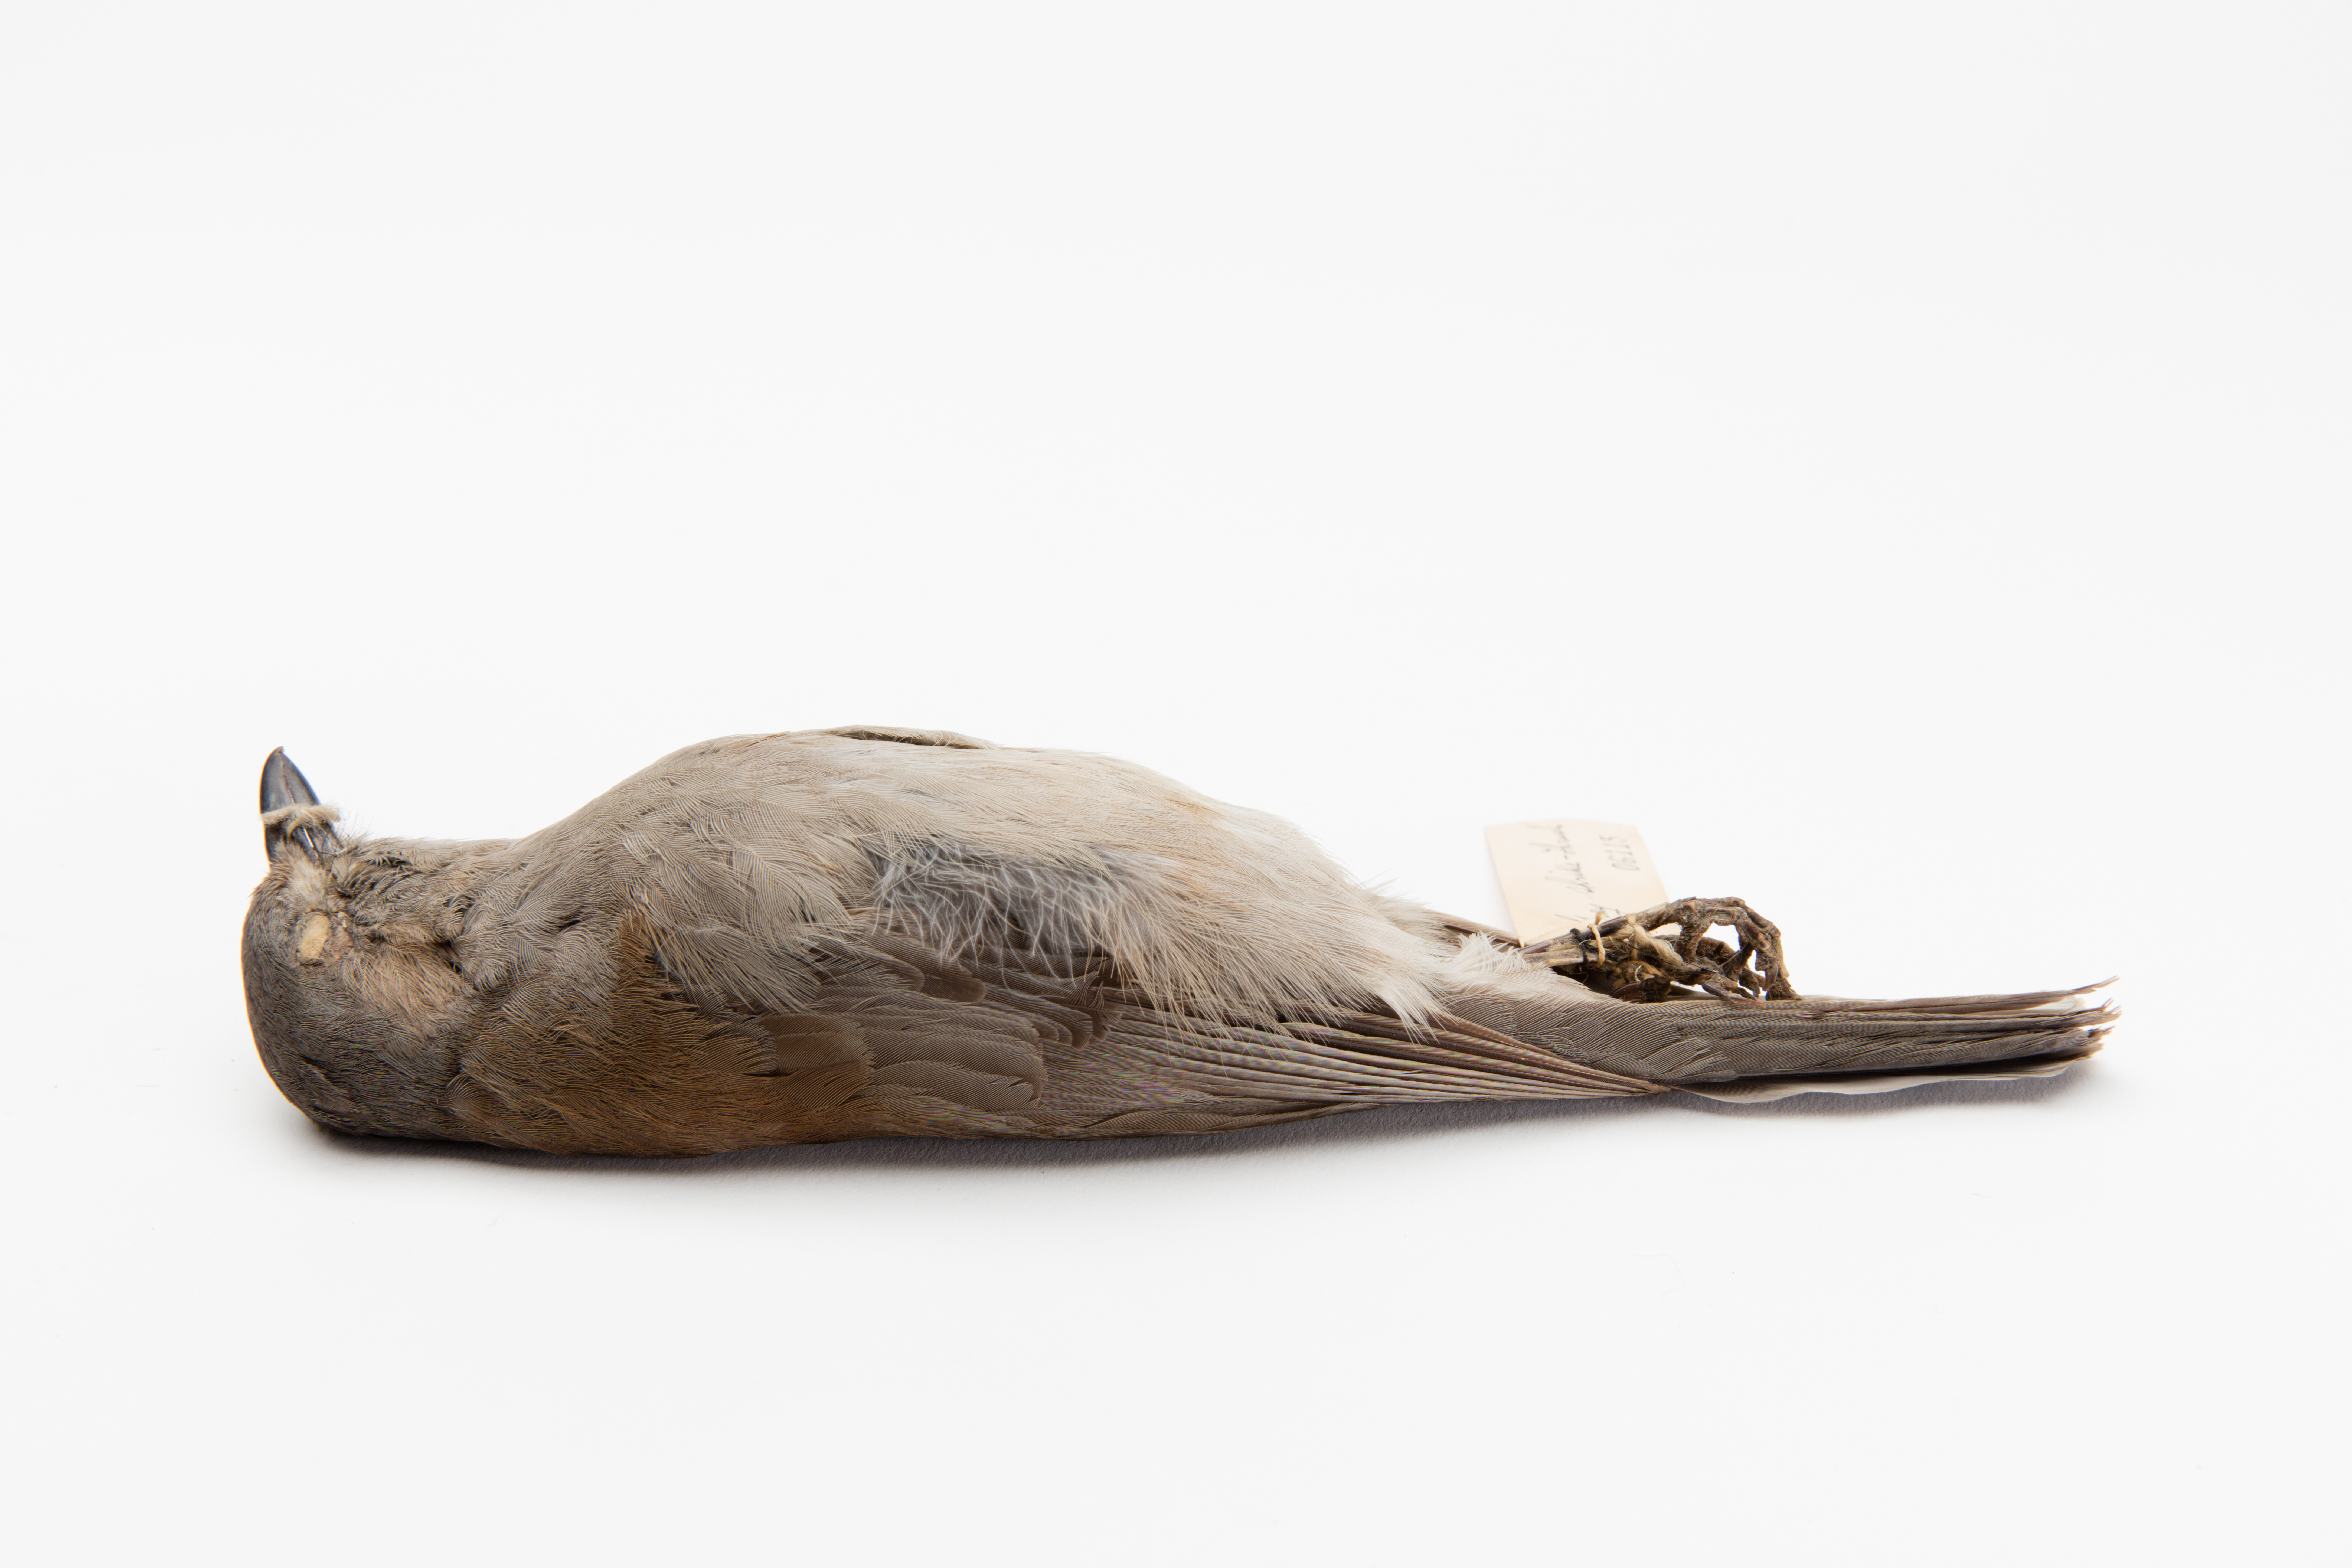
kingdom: Animalia
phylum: Chordata
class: Aves
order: Passeriformes
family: Pachycephalidae
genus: Colluricincla
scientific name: Colluricincla harmonica
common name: Grey shrikethrush
